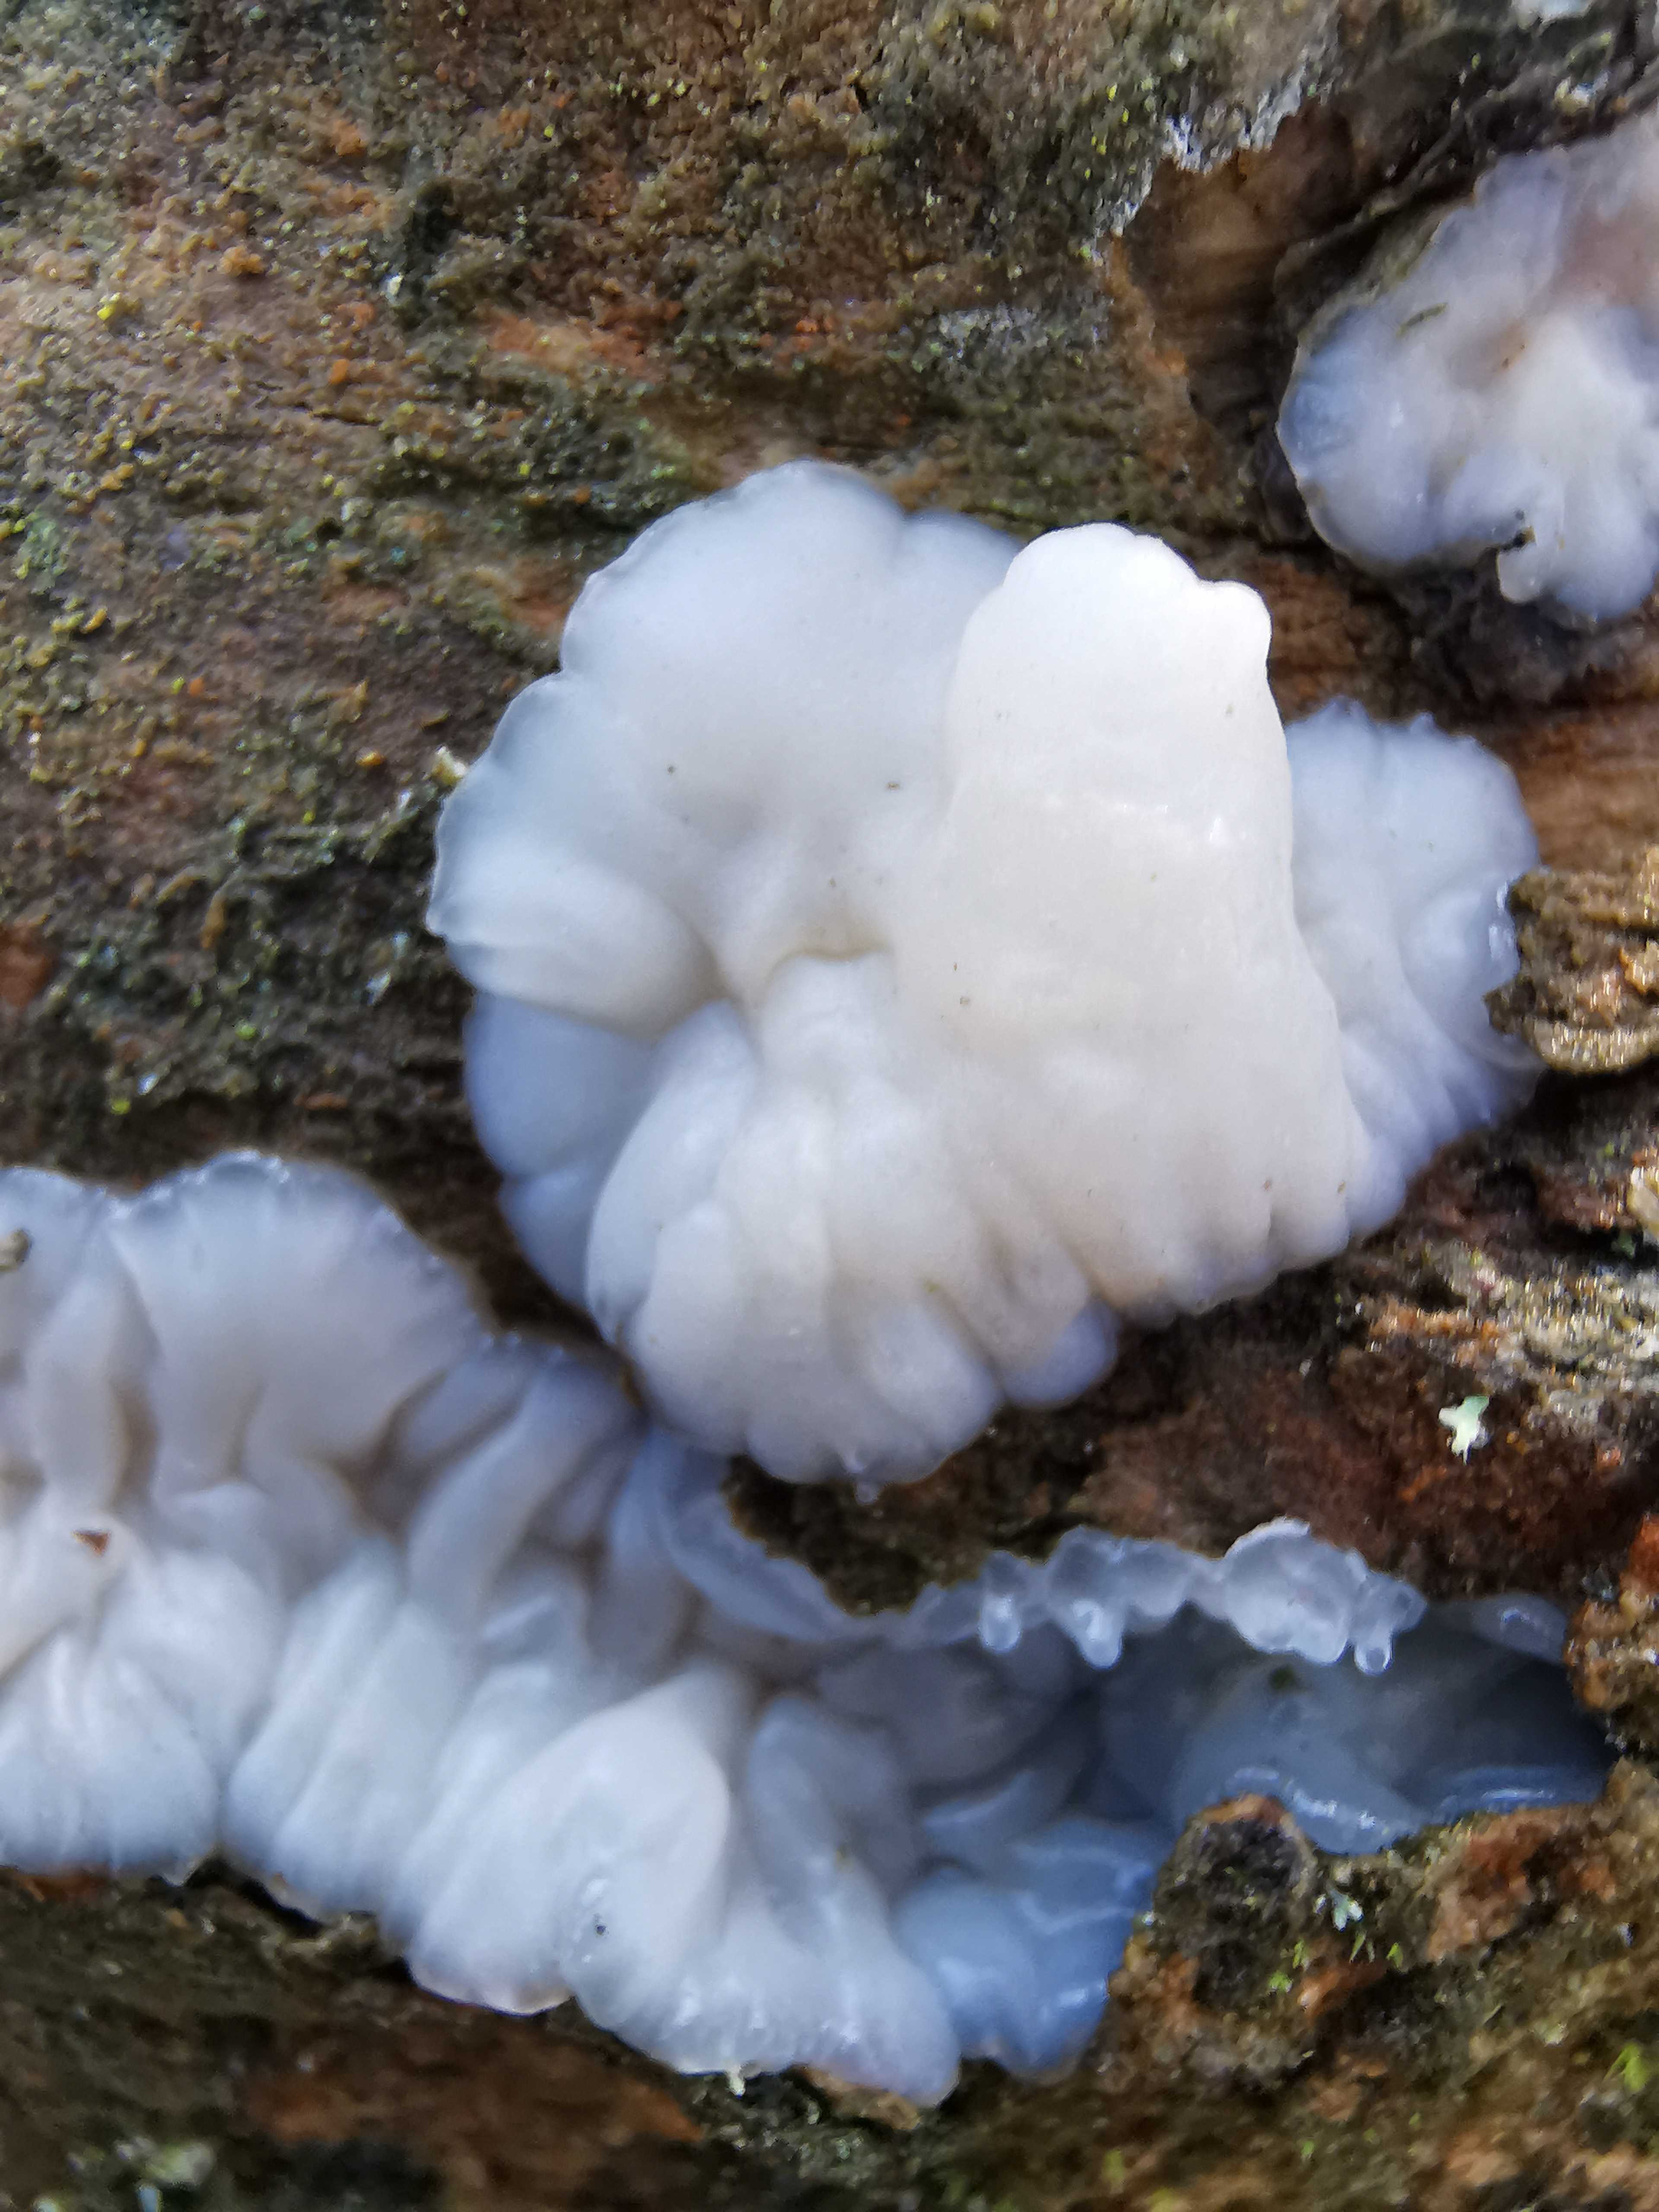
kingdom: Fungi
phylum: Basidiomycota
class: Agaricomycetes
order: Auriculariales
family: Auriculariaceae
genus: Exidia
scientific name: Exidia thuretiana
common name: hvidlig bævretop
